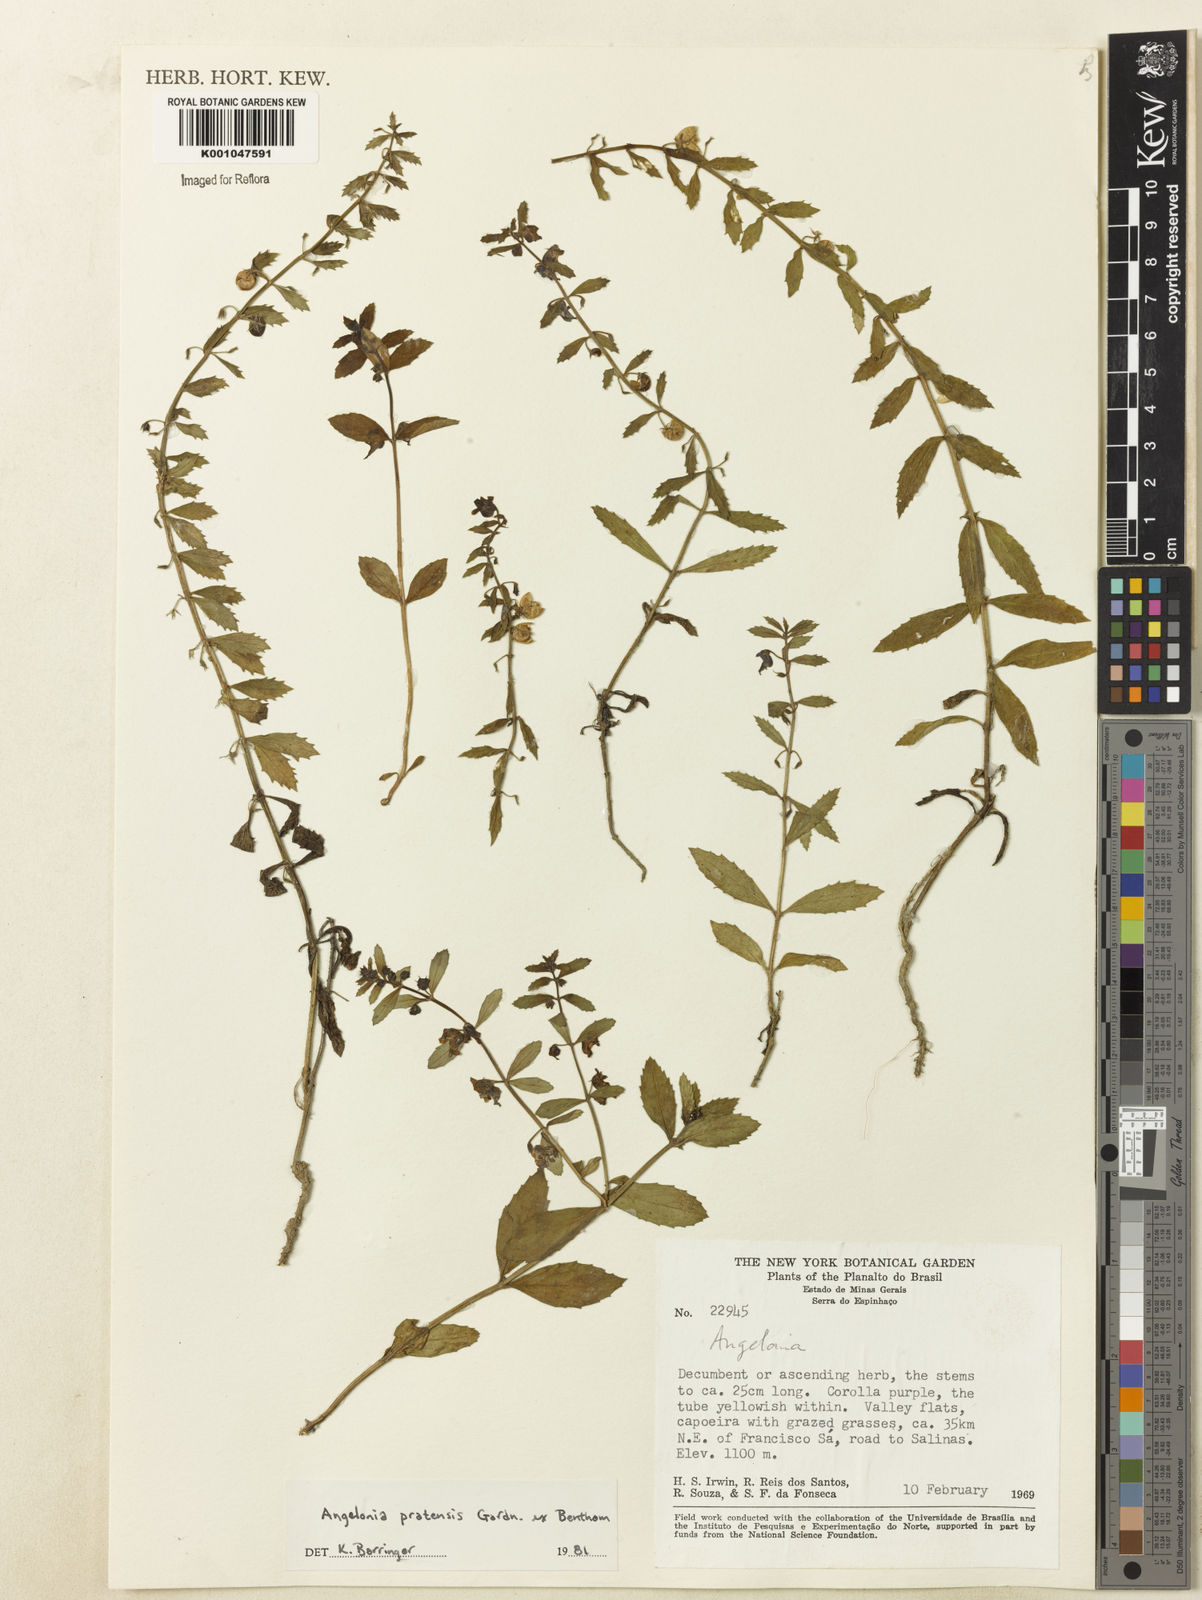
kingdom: Plantae
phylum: Tracheophyta
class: Magnoliopsida
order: Lamiales
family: Plantaginaceae
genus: Angelonia
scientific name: Angelonia pratensis
